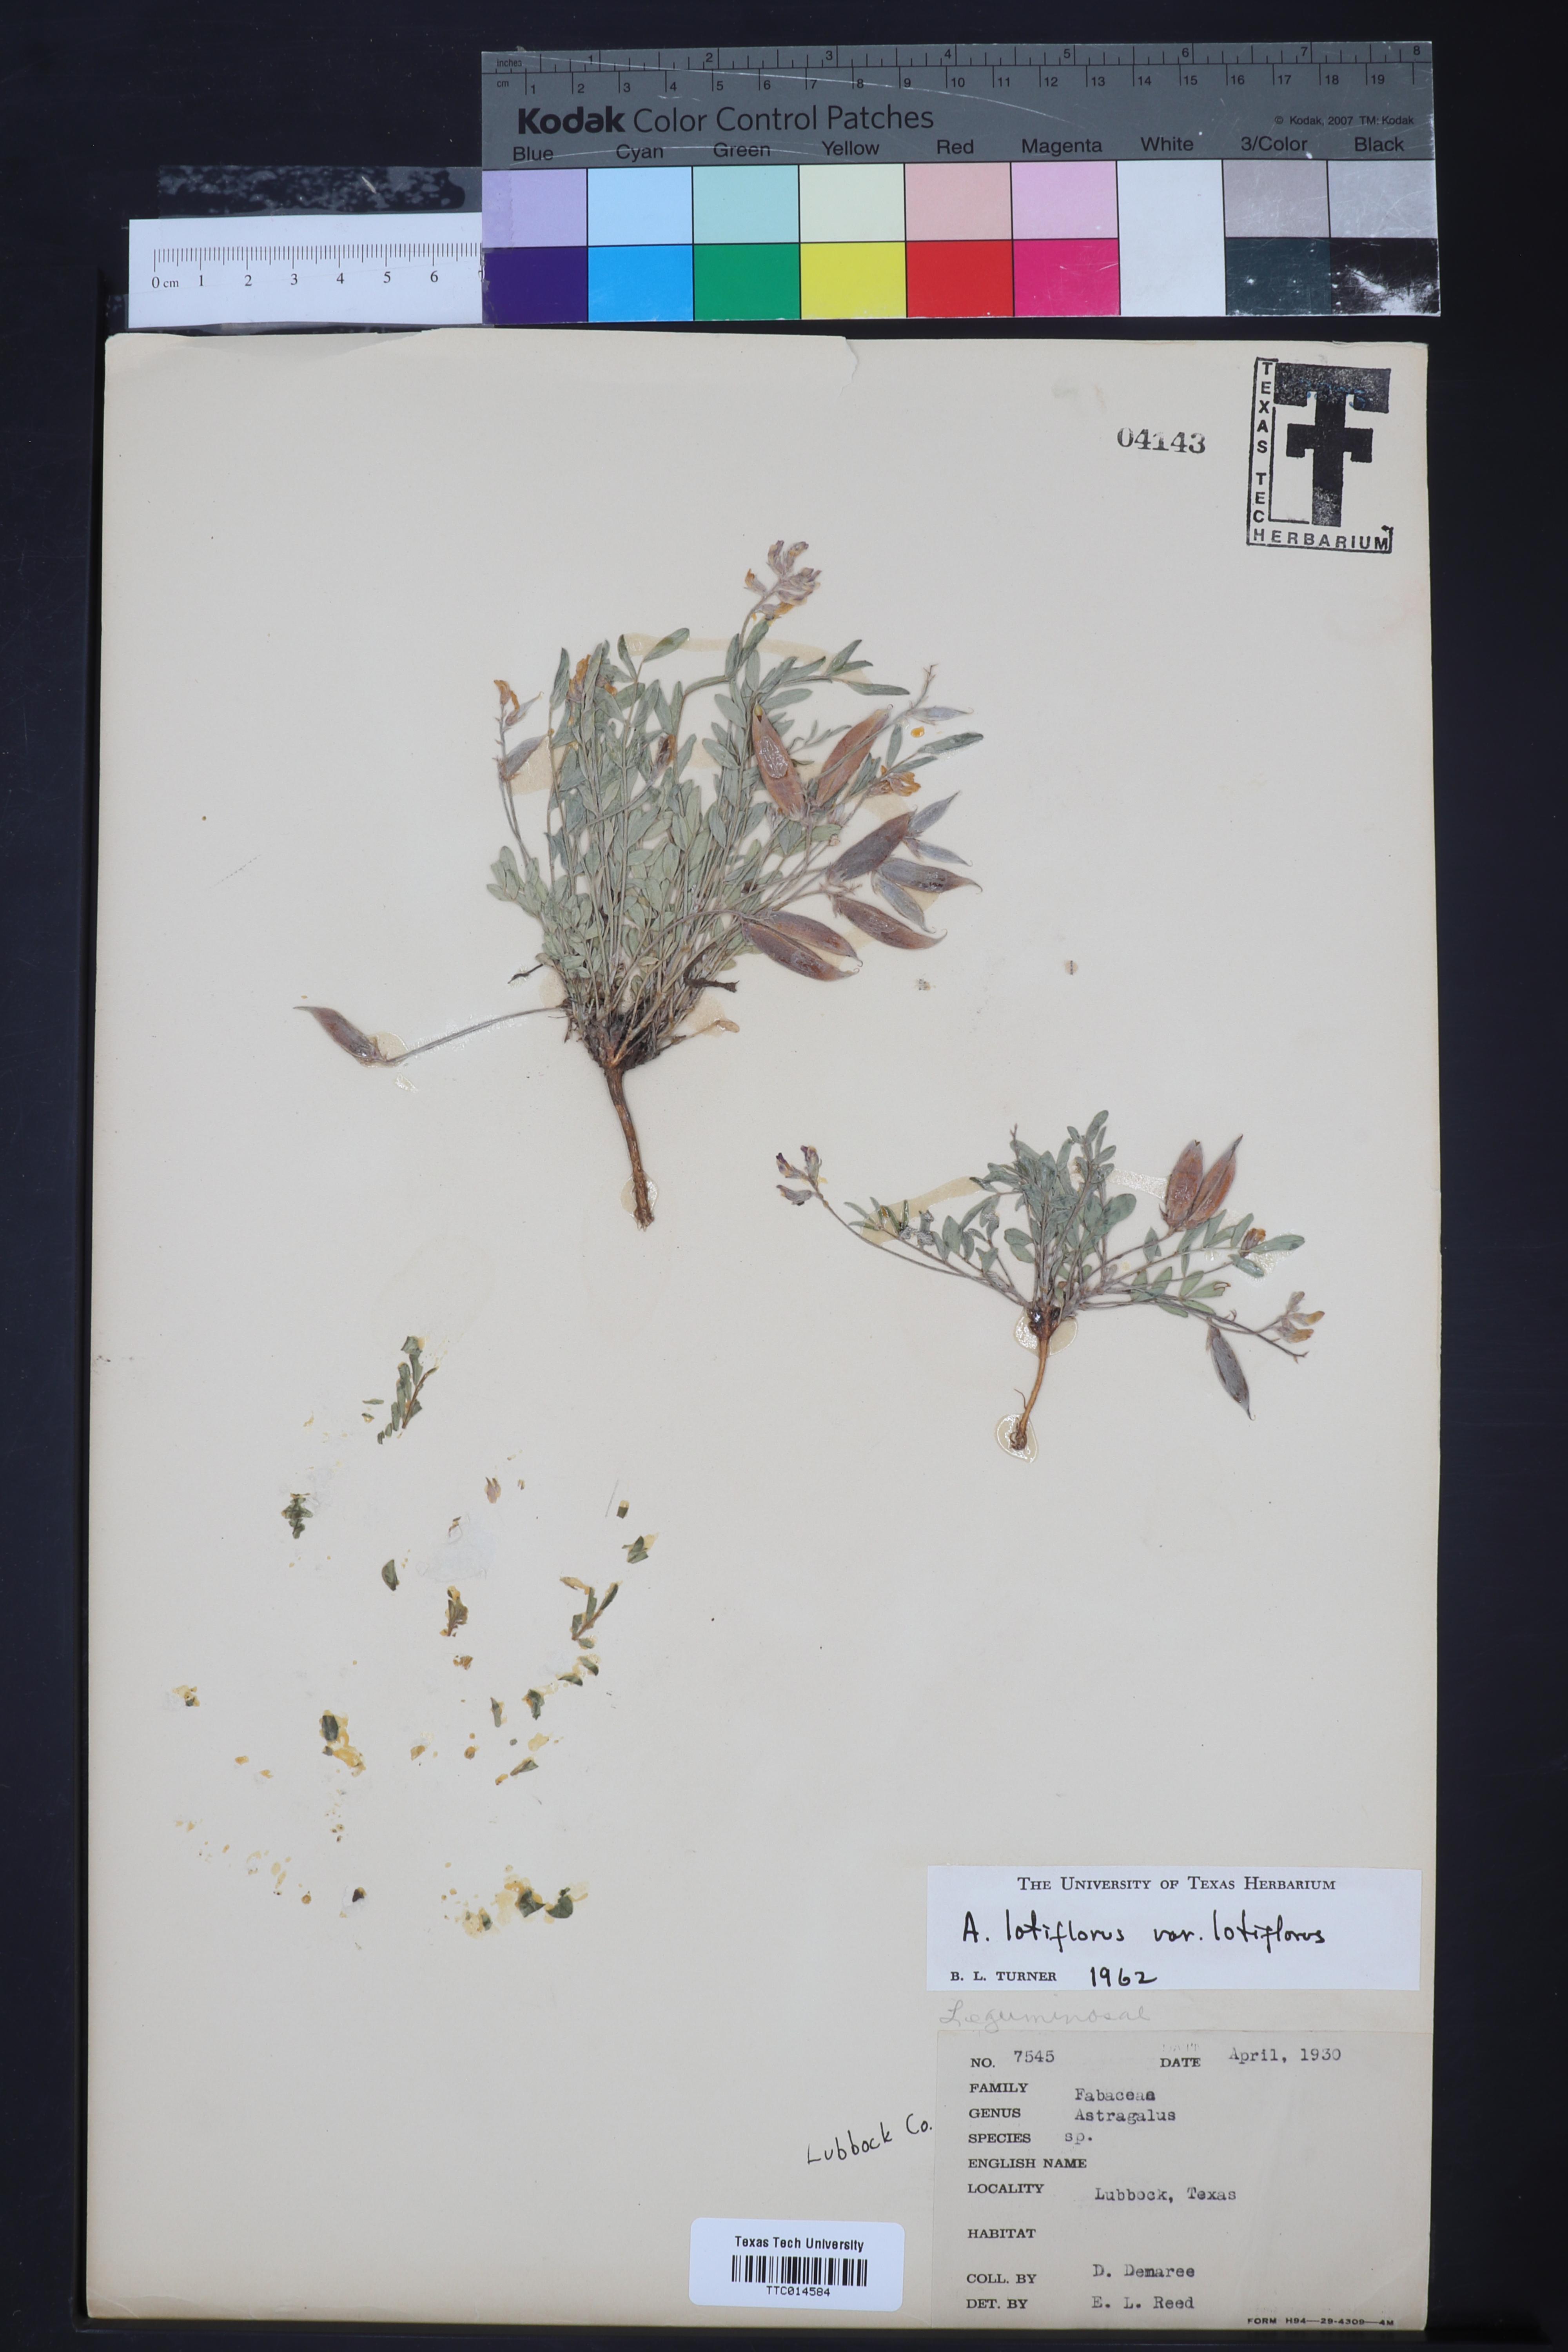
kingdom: Plantae
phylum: Tracheophyta
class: Magnoliopsida
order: Fabales
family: Fabaceae
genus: Astragalus
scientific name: Astragalus lotiflorus
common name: Lotus milk-vetch
